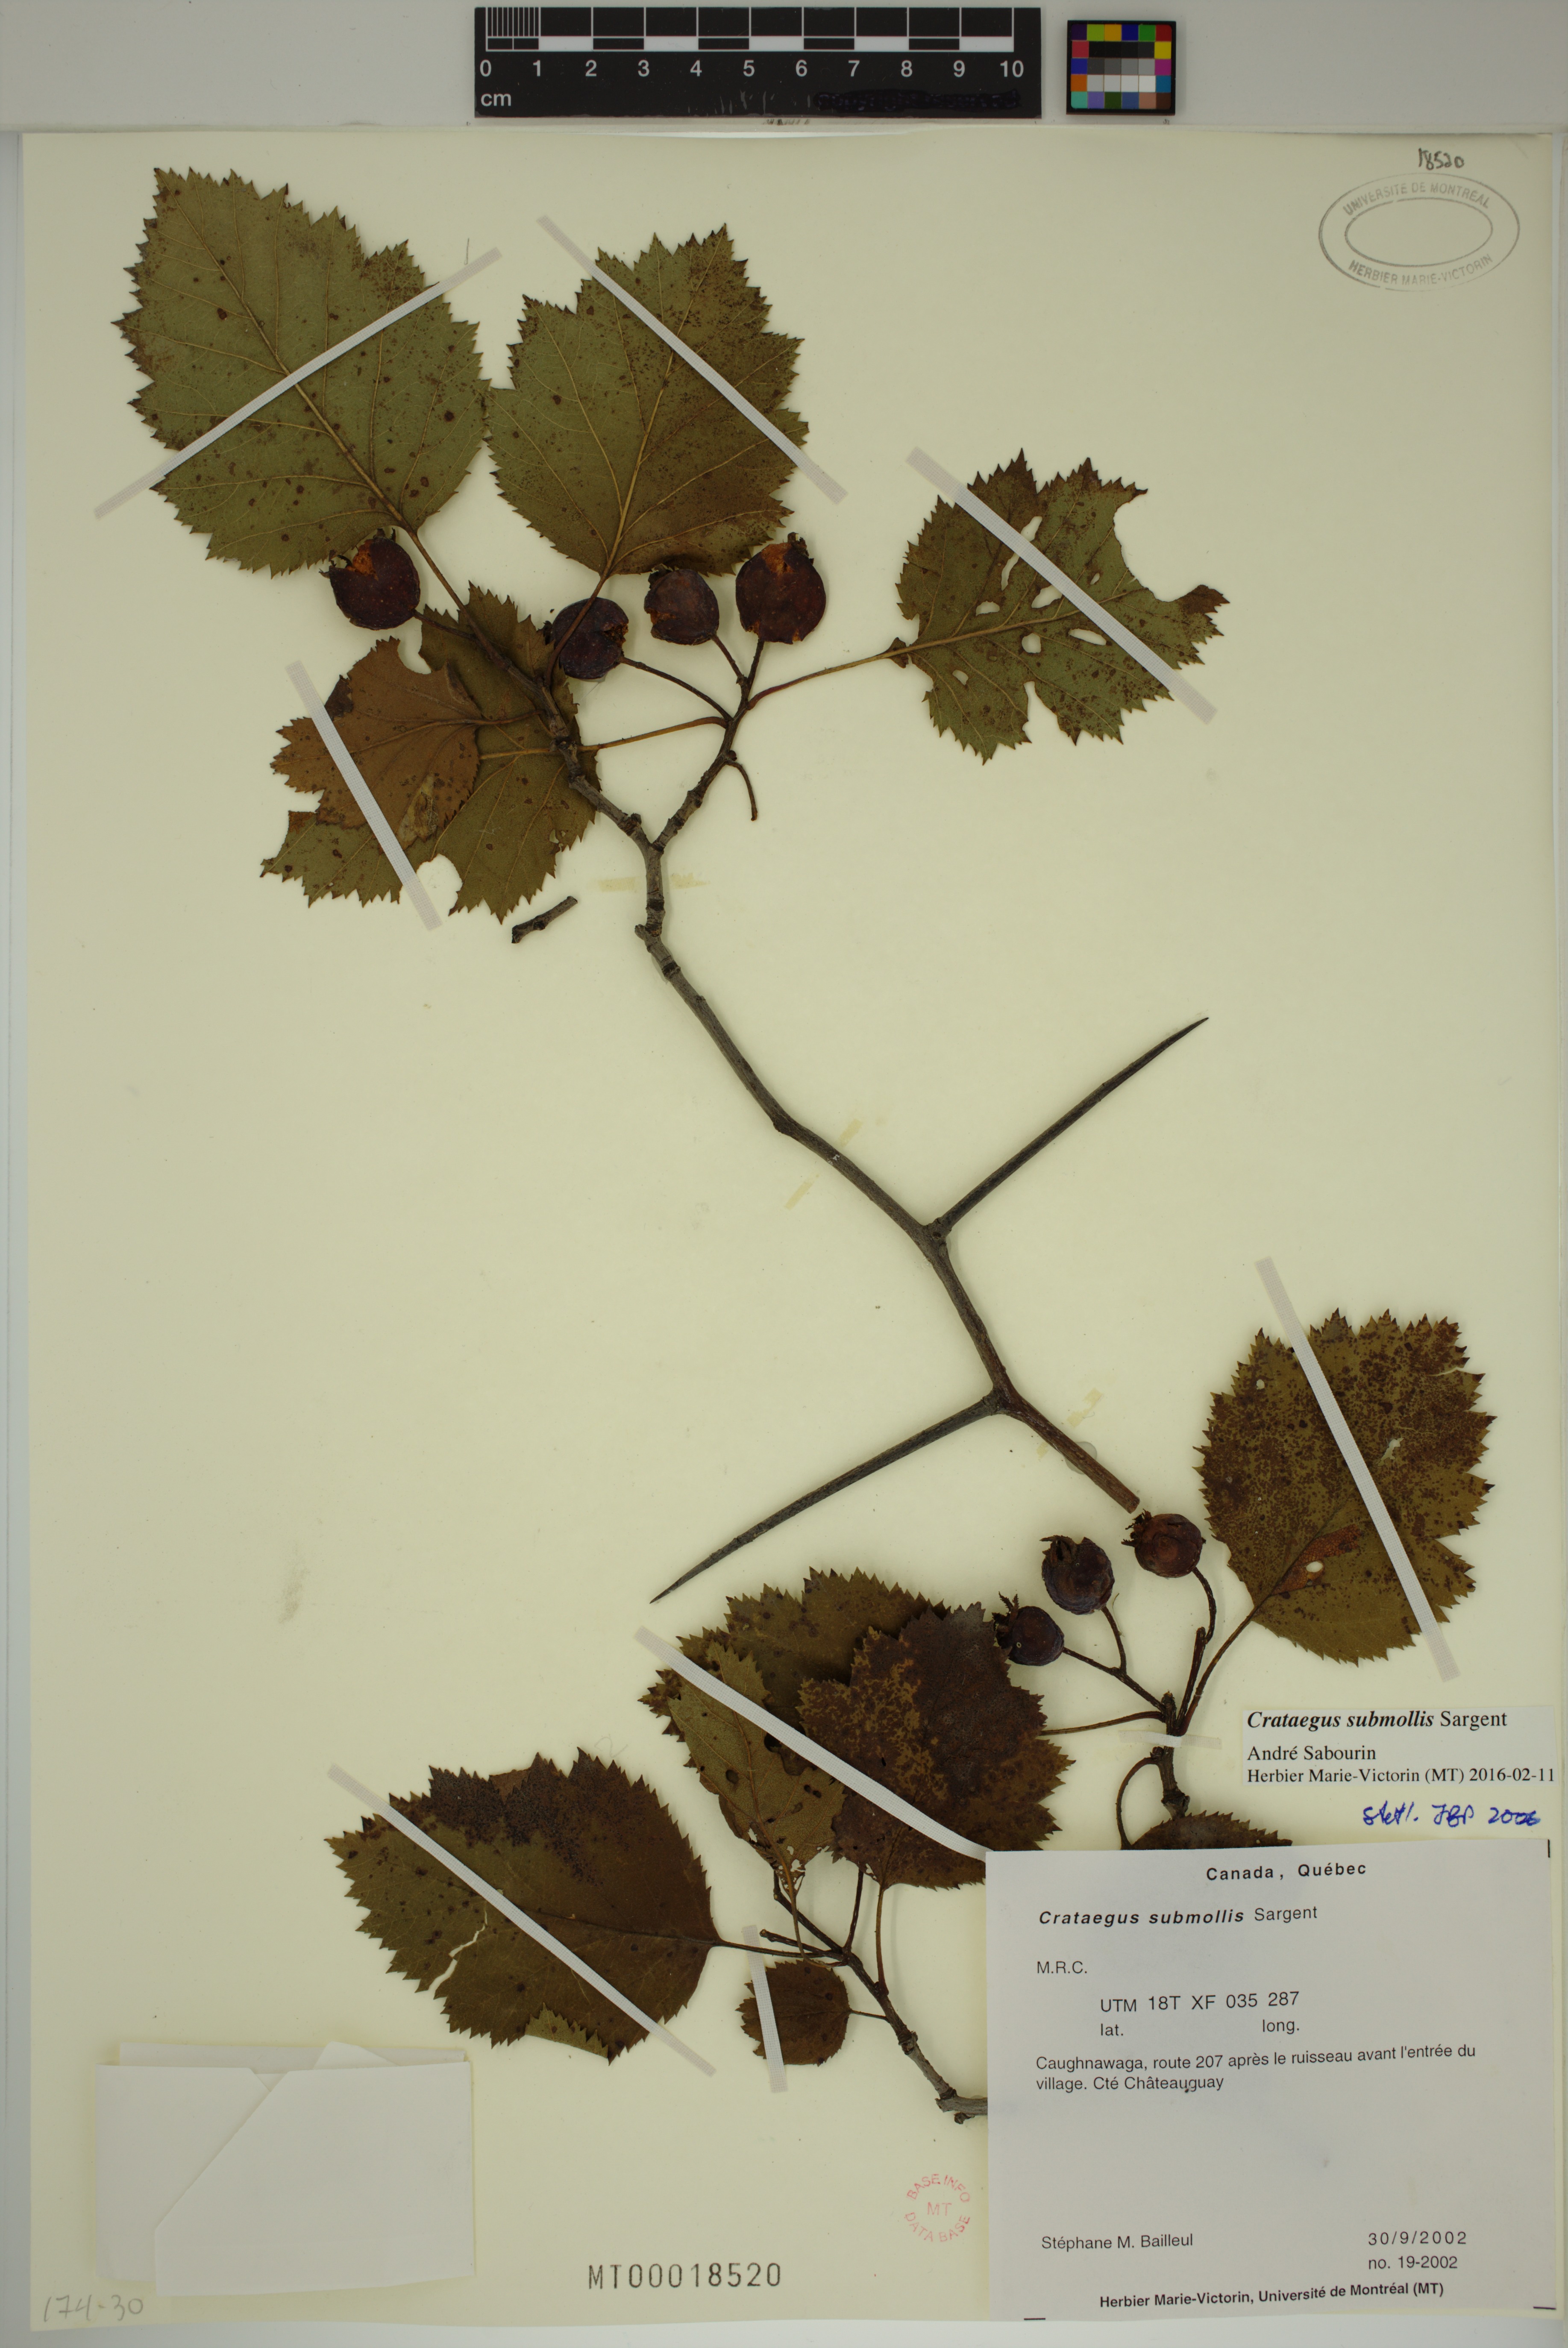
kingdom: Plantae
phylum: Tracheophyta
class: Magnoliopsida
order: Rosales
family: Rosaceae
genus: Crataegus
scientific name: Crataegus submollis
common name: Hairy cockspurthorn
